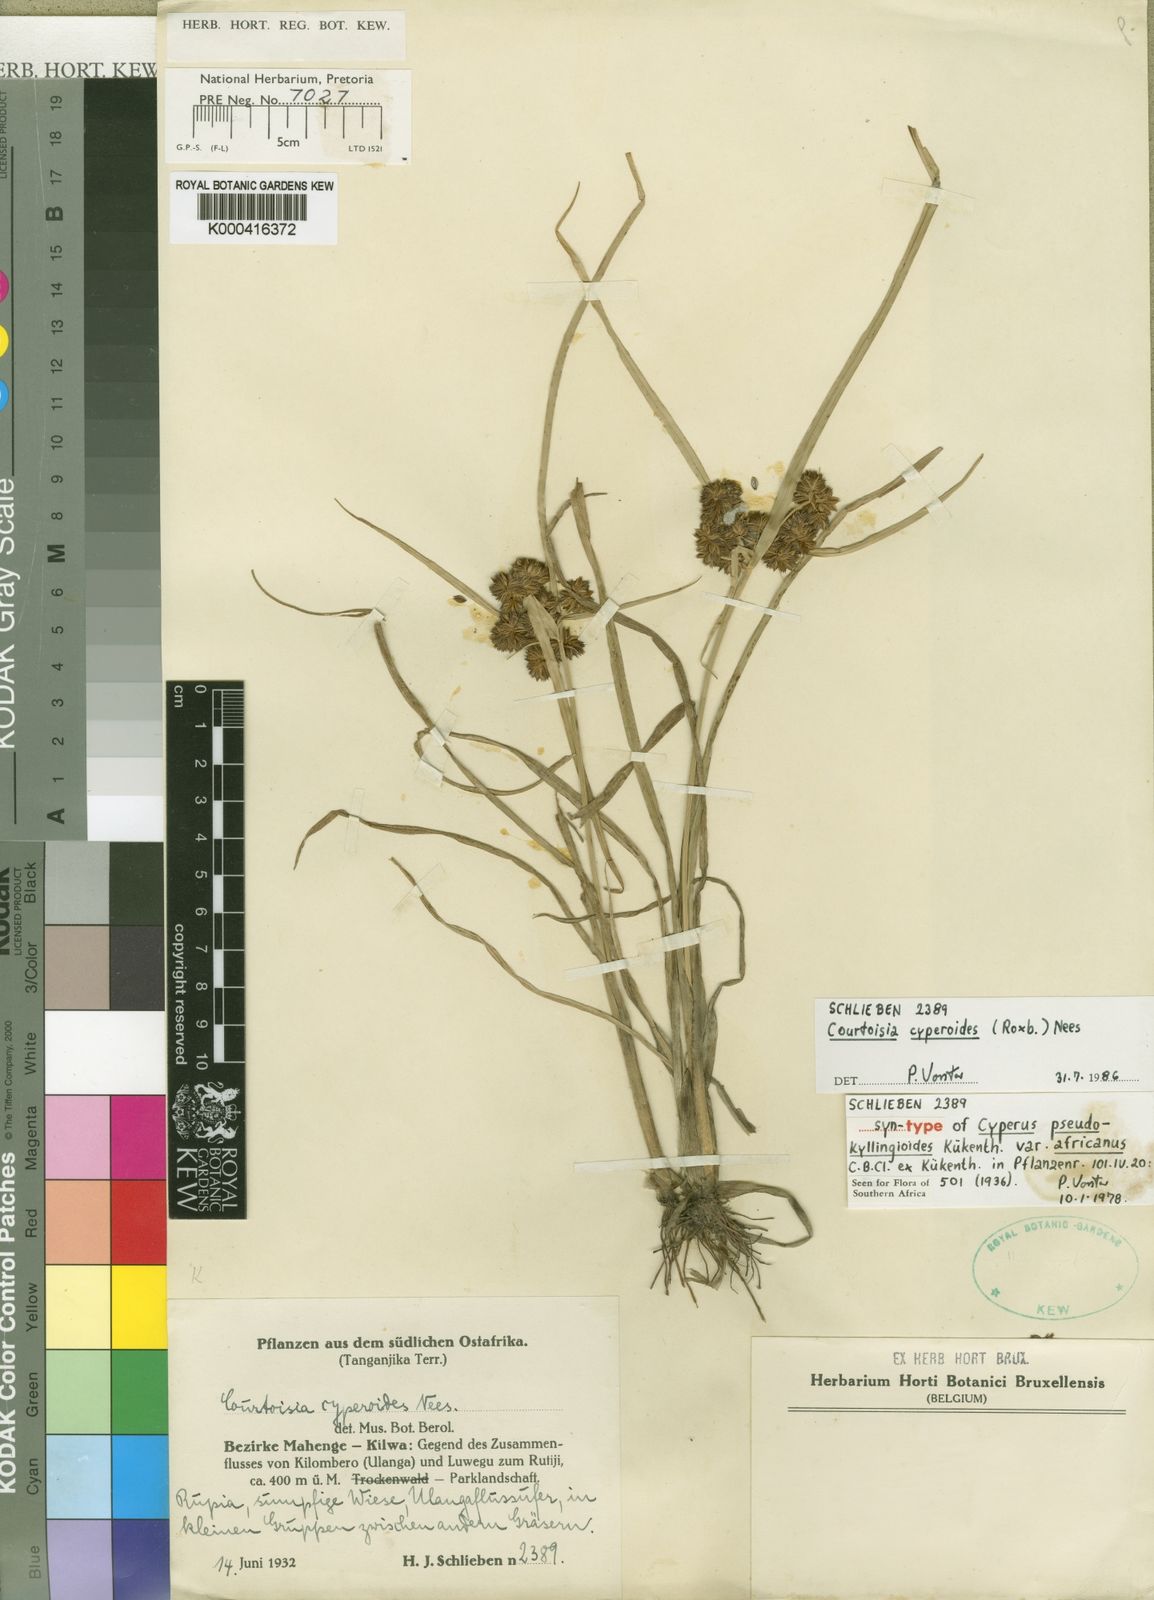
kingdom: Plantae
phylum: Tracheophyta
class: Liliopsida
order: Poales
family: Cyperaceae
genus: Cyperus
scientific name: Cyperus
